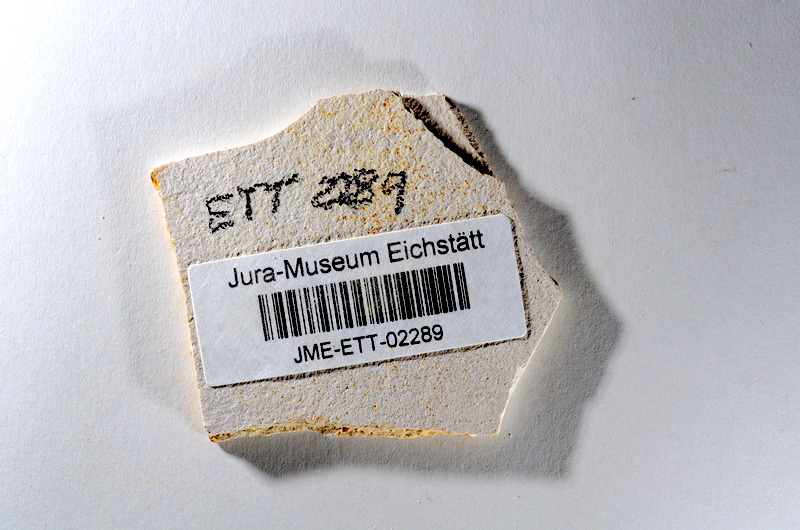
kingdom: Animalia
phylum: Chordata
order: Salmoniformes
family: Orthogonikleithridae
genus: Orthogonikleithrus
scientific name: Orthogonikleithrus hoelli
